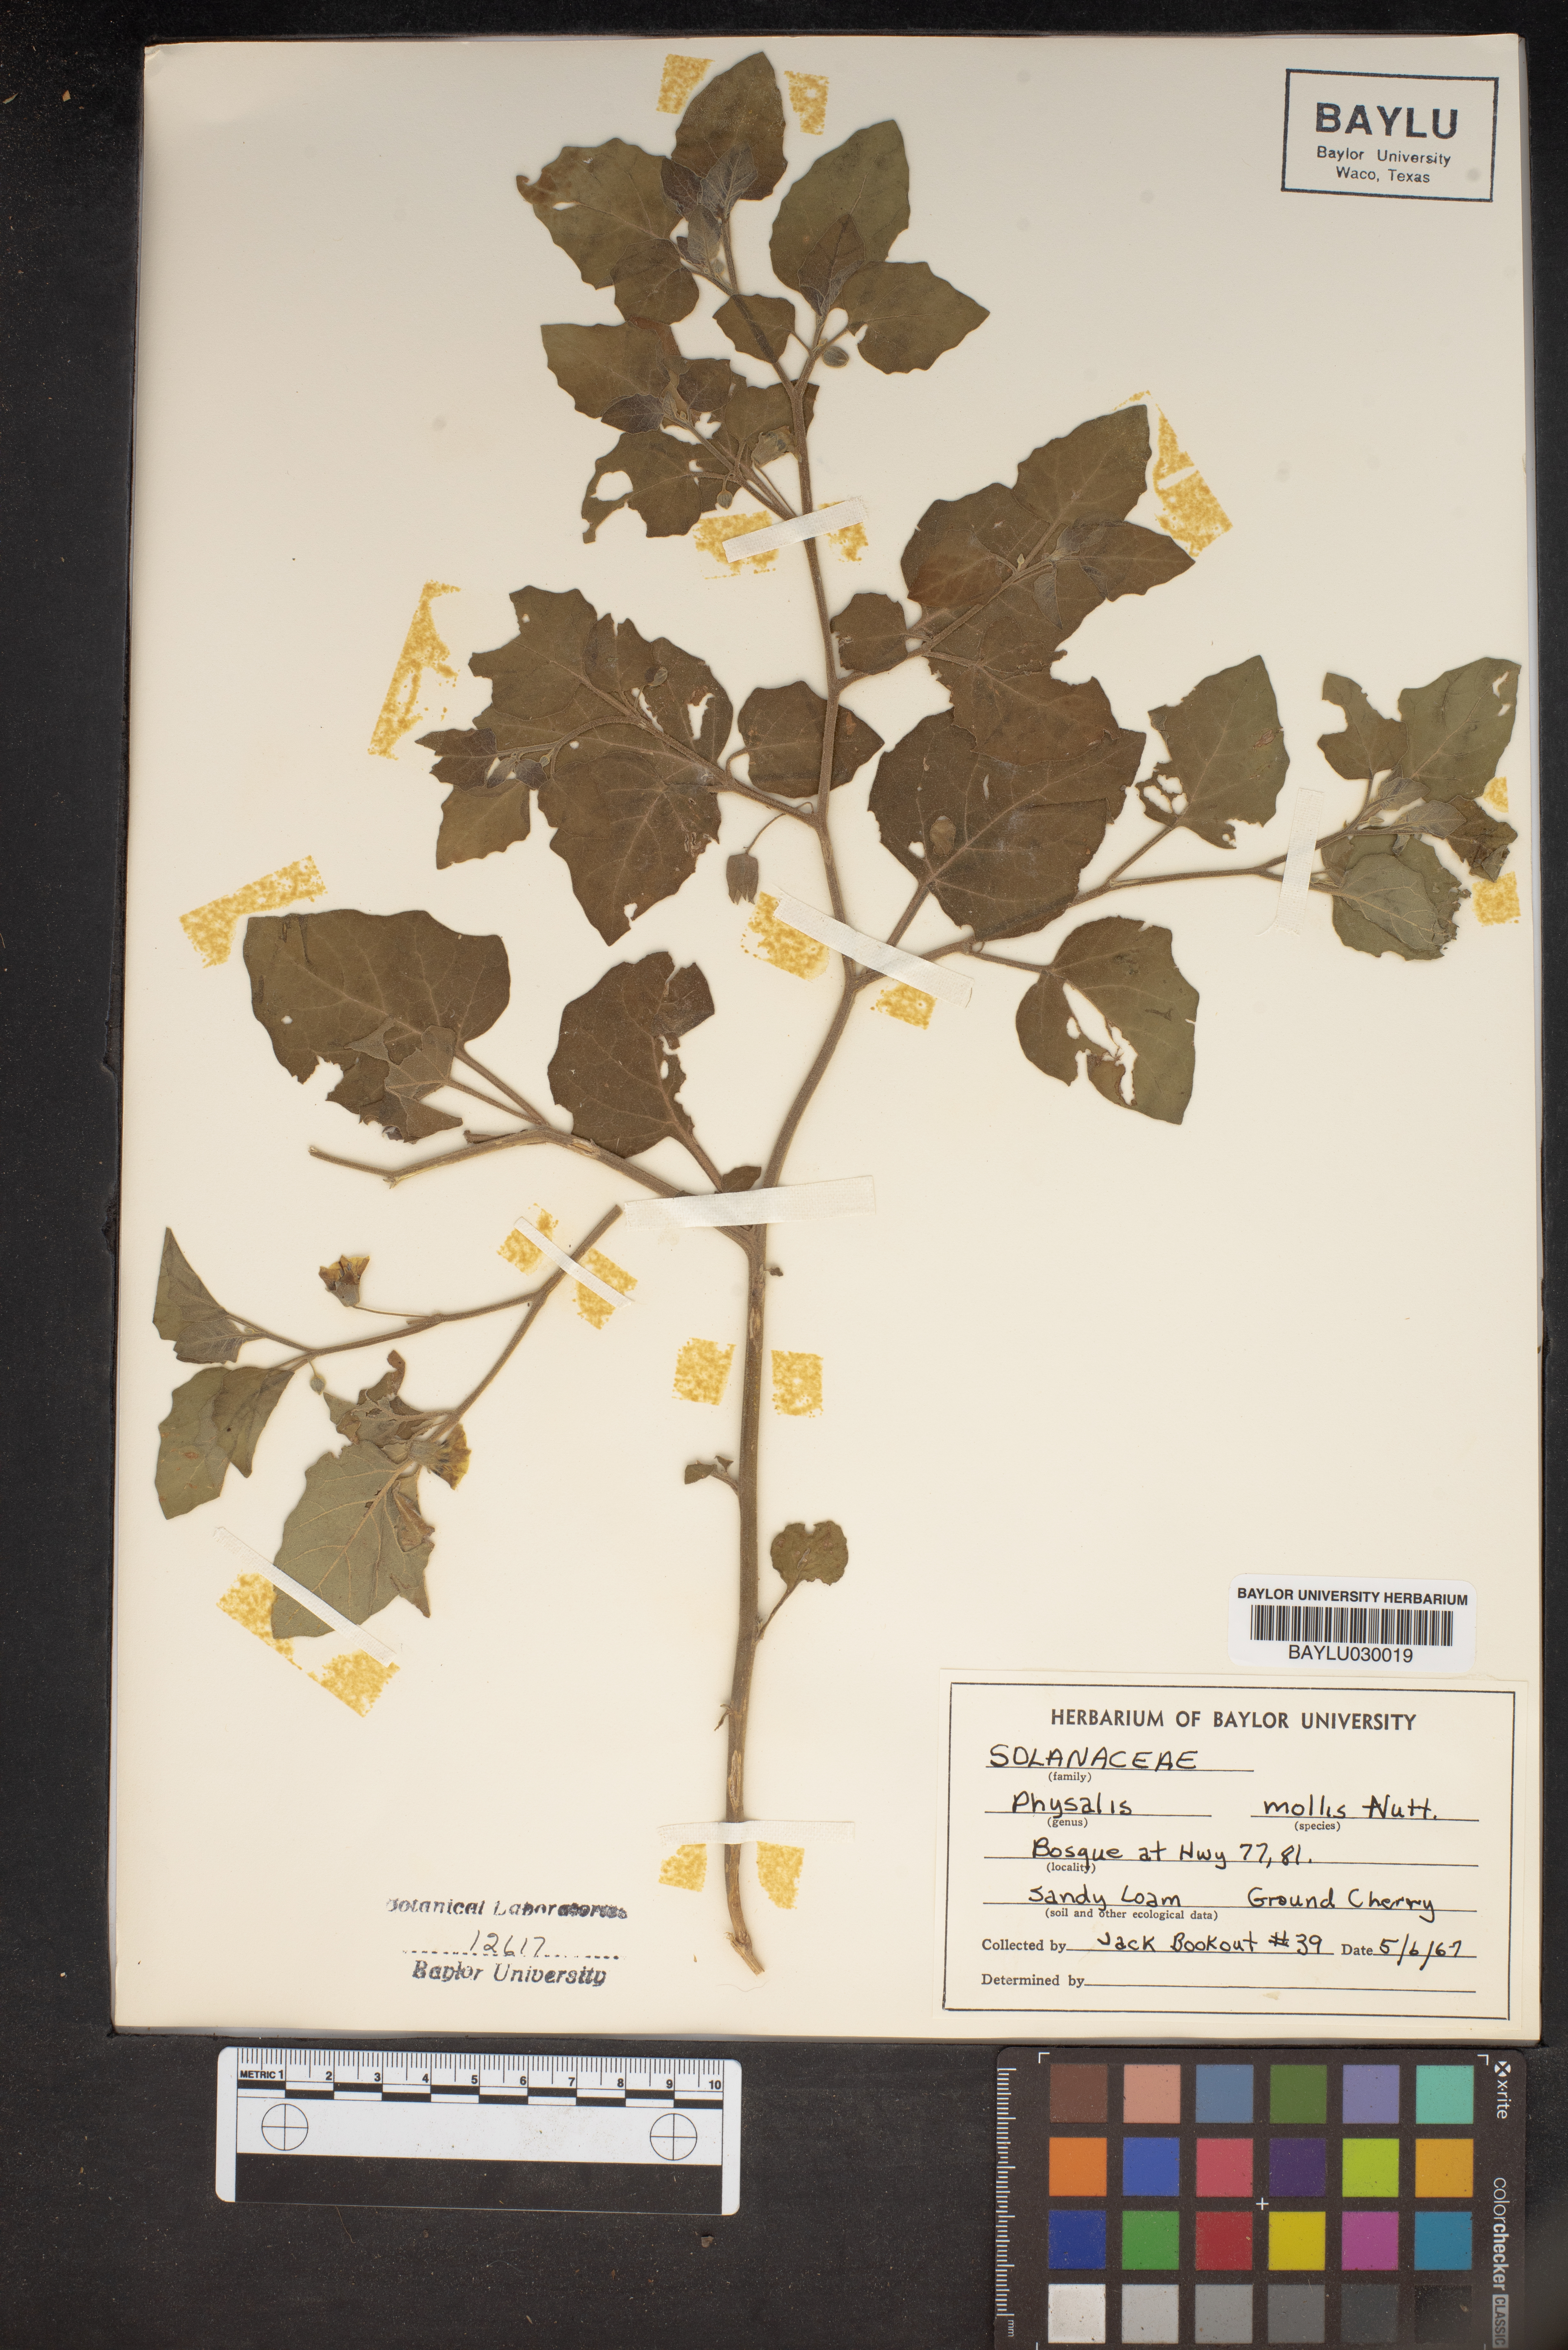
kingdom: Plantae
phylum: Tracheophyta
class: Magnoliopsida
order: Solanales
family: Solanaceae
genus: Physalis
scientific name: Physalis mollis
